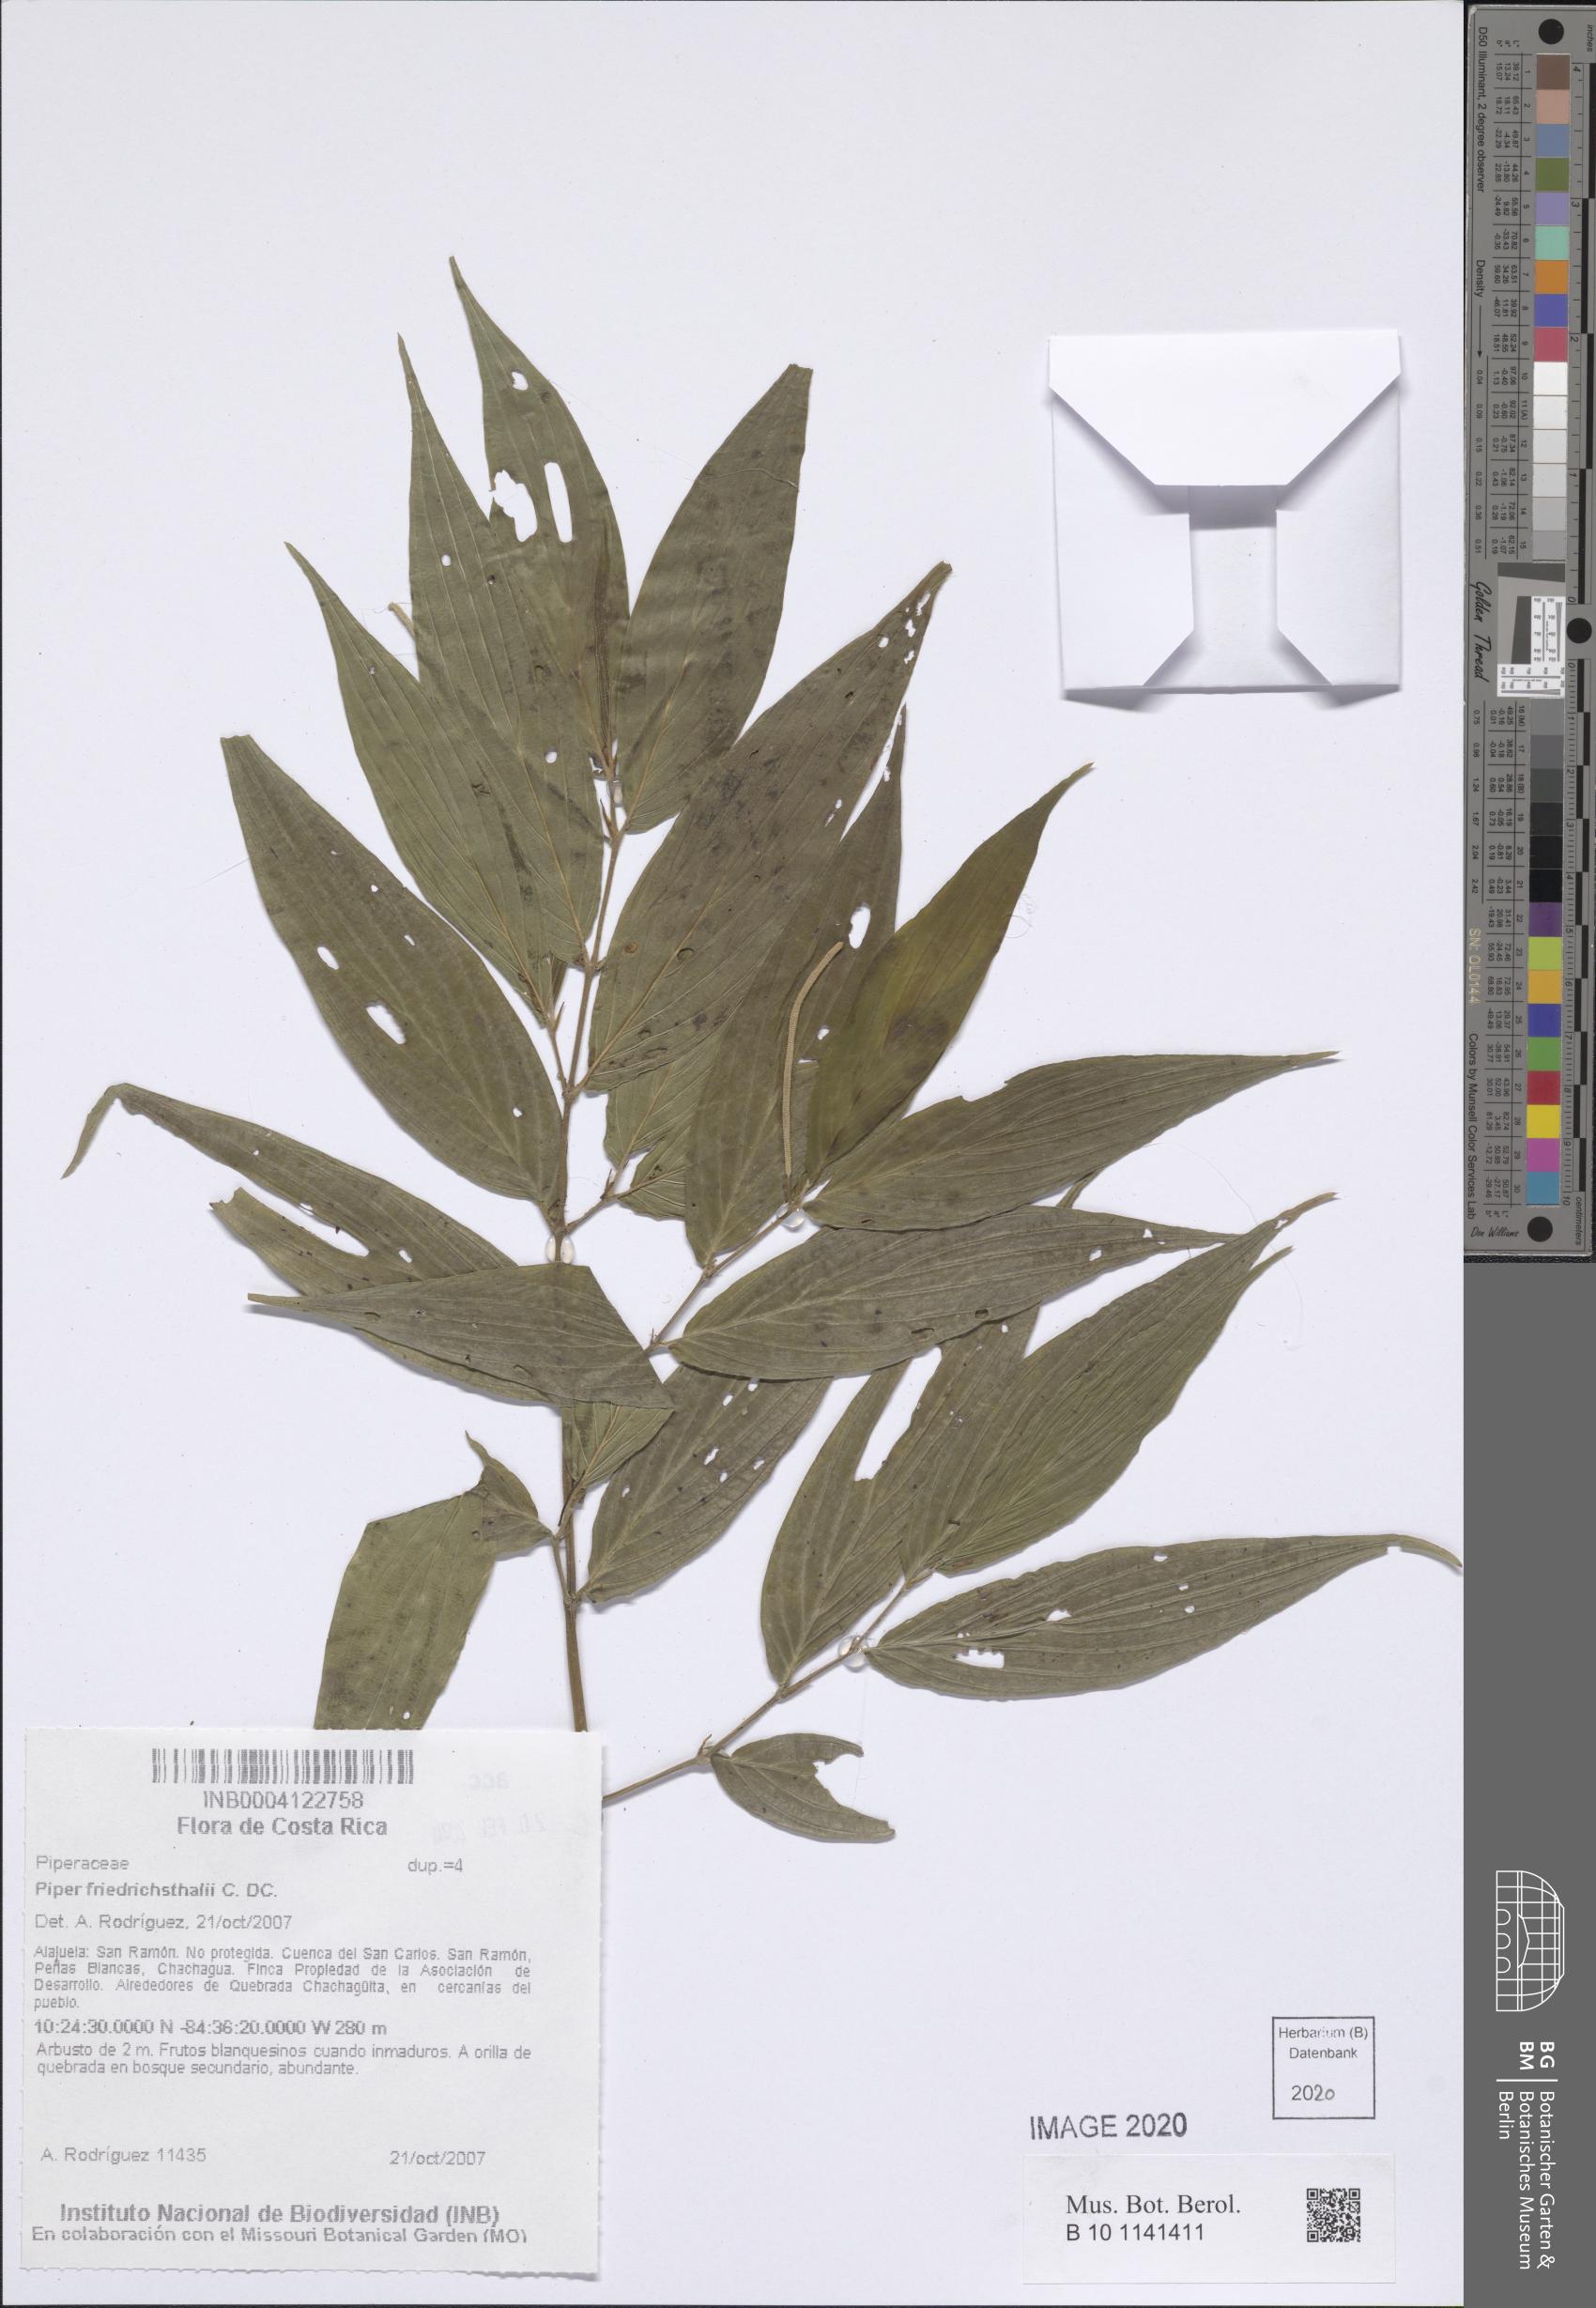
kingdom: Plantae
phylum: Tracheophyta
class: Magnoliopsida
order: Piperales
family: Piperaceae
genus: Piper
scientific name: Piper friedrichsthalii
